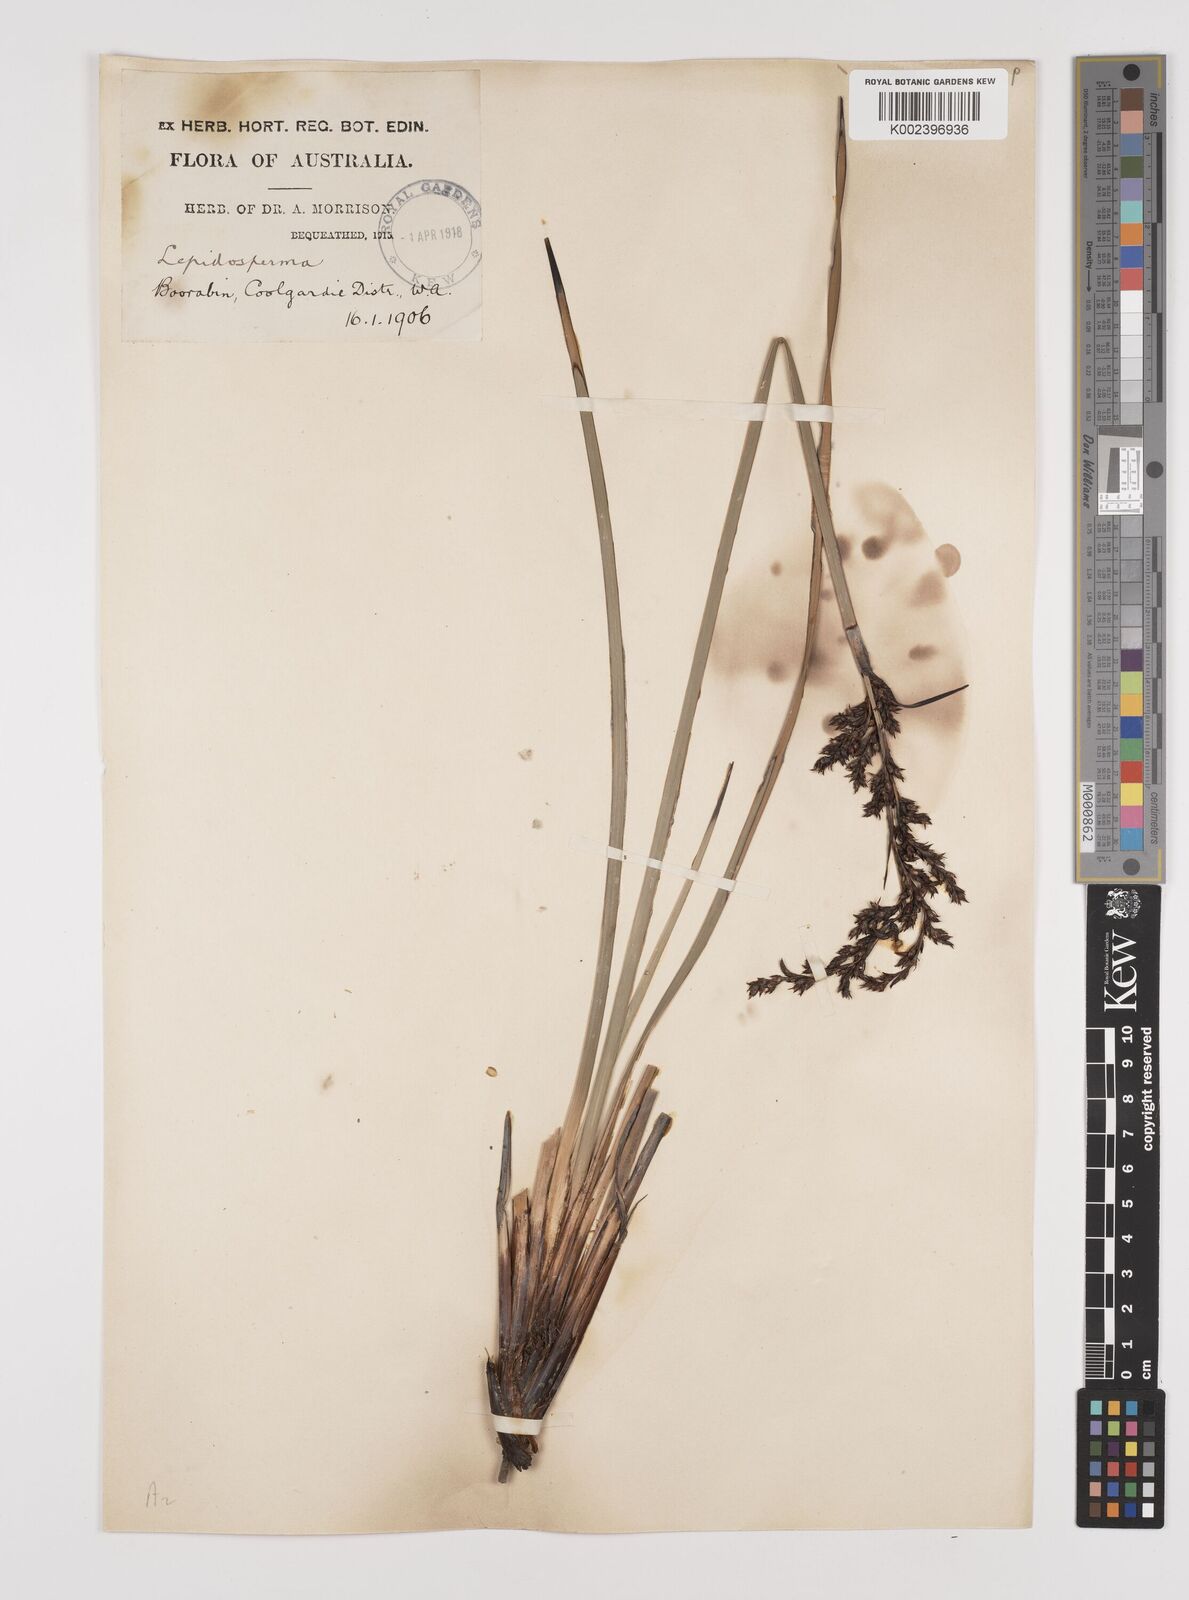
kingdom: Plantae
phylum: Tracheophyta
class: Liliopsida
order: Poales
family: Cyperaceae
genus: Lepidosperma
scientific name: Lepidosperma resinosum
